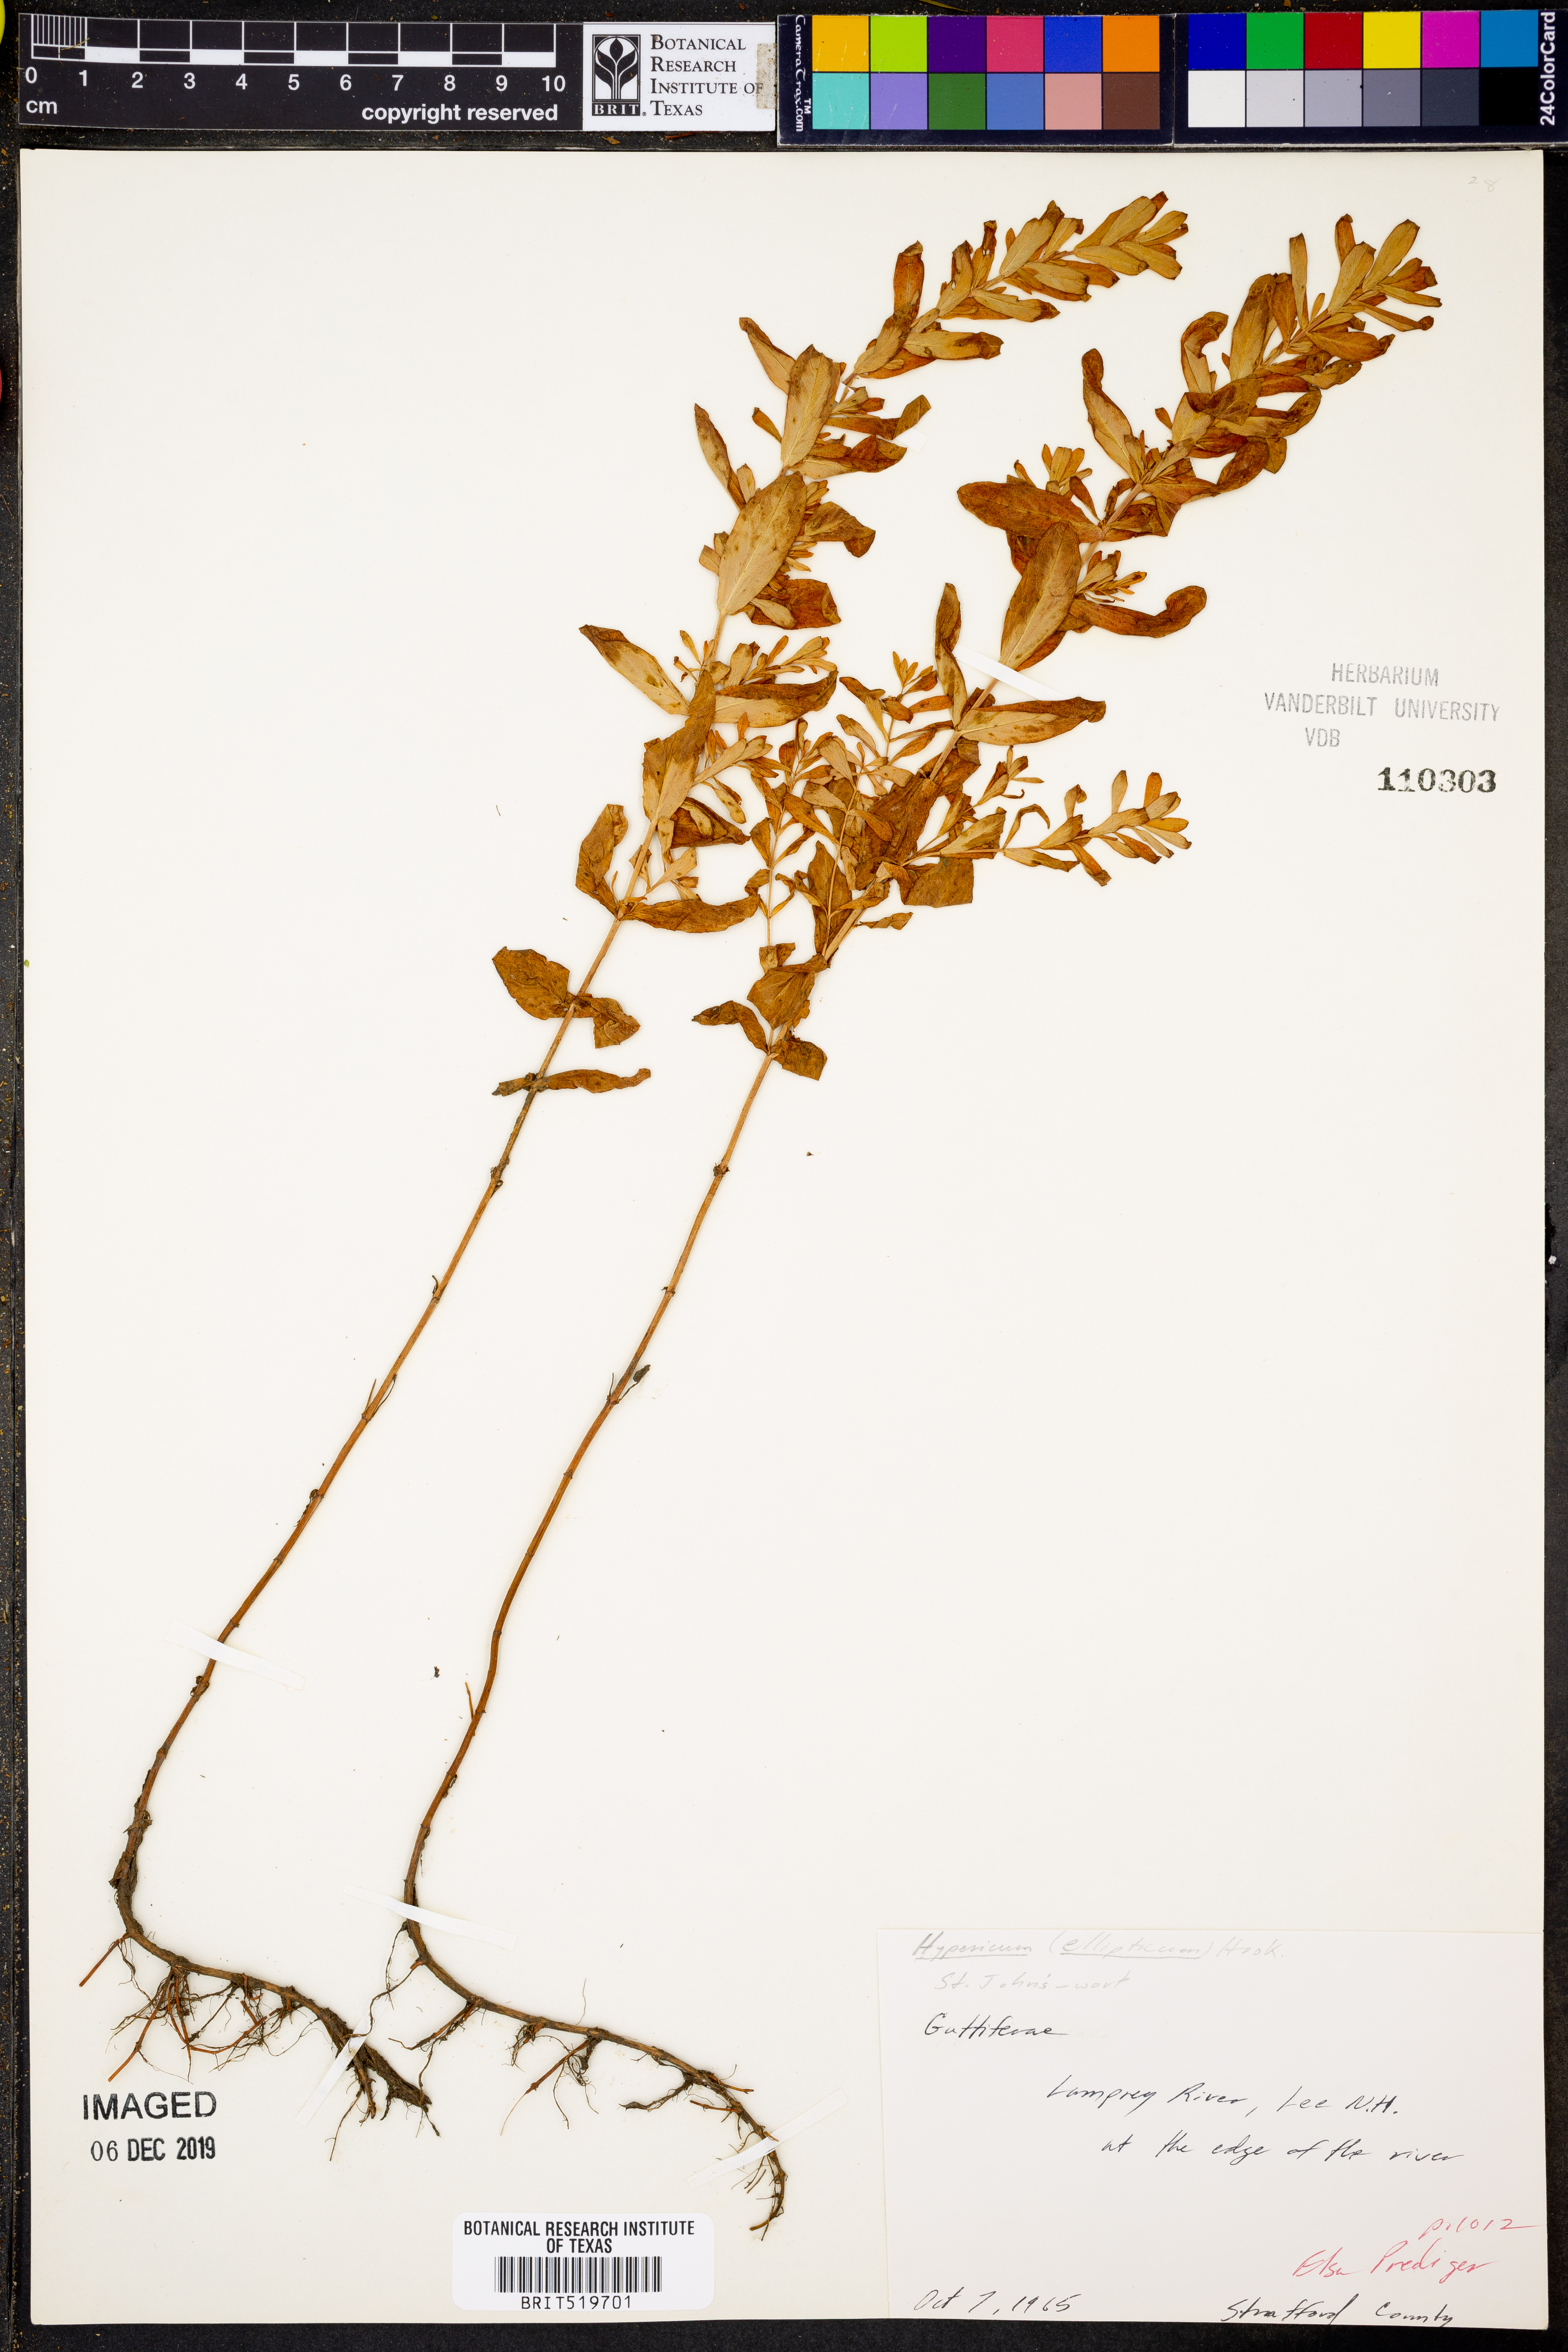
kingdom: Plantae
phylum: Tracheophyta
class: Magnoliopsida
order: Malpighiales
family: Hypericaceae
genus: Hypericum
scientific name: Hypericum ellipticum
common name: Elliptic st. john's-wort
